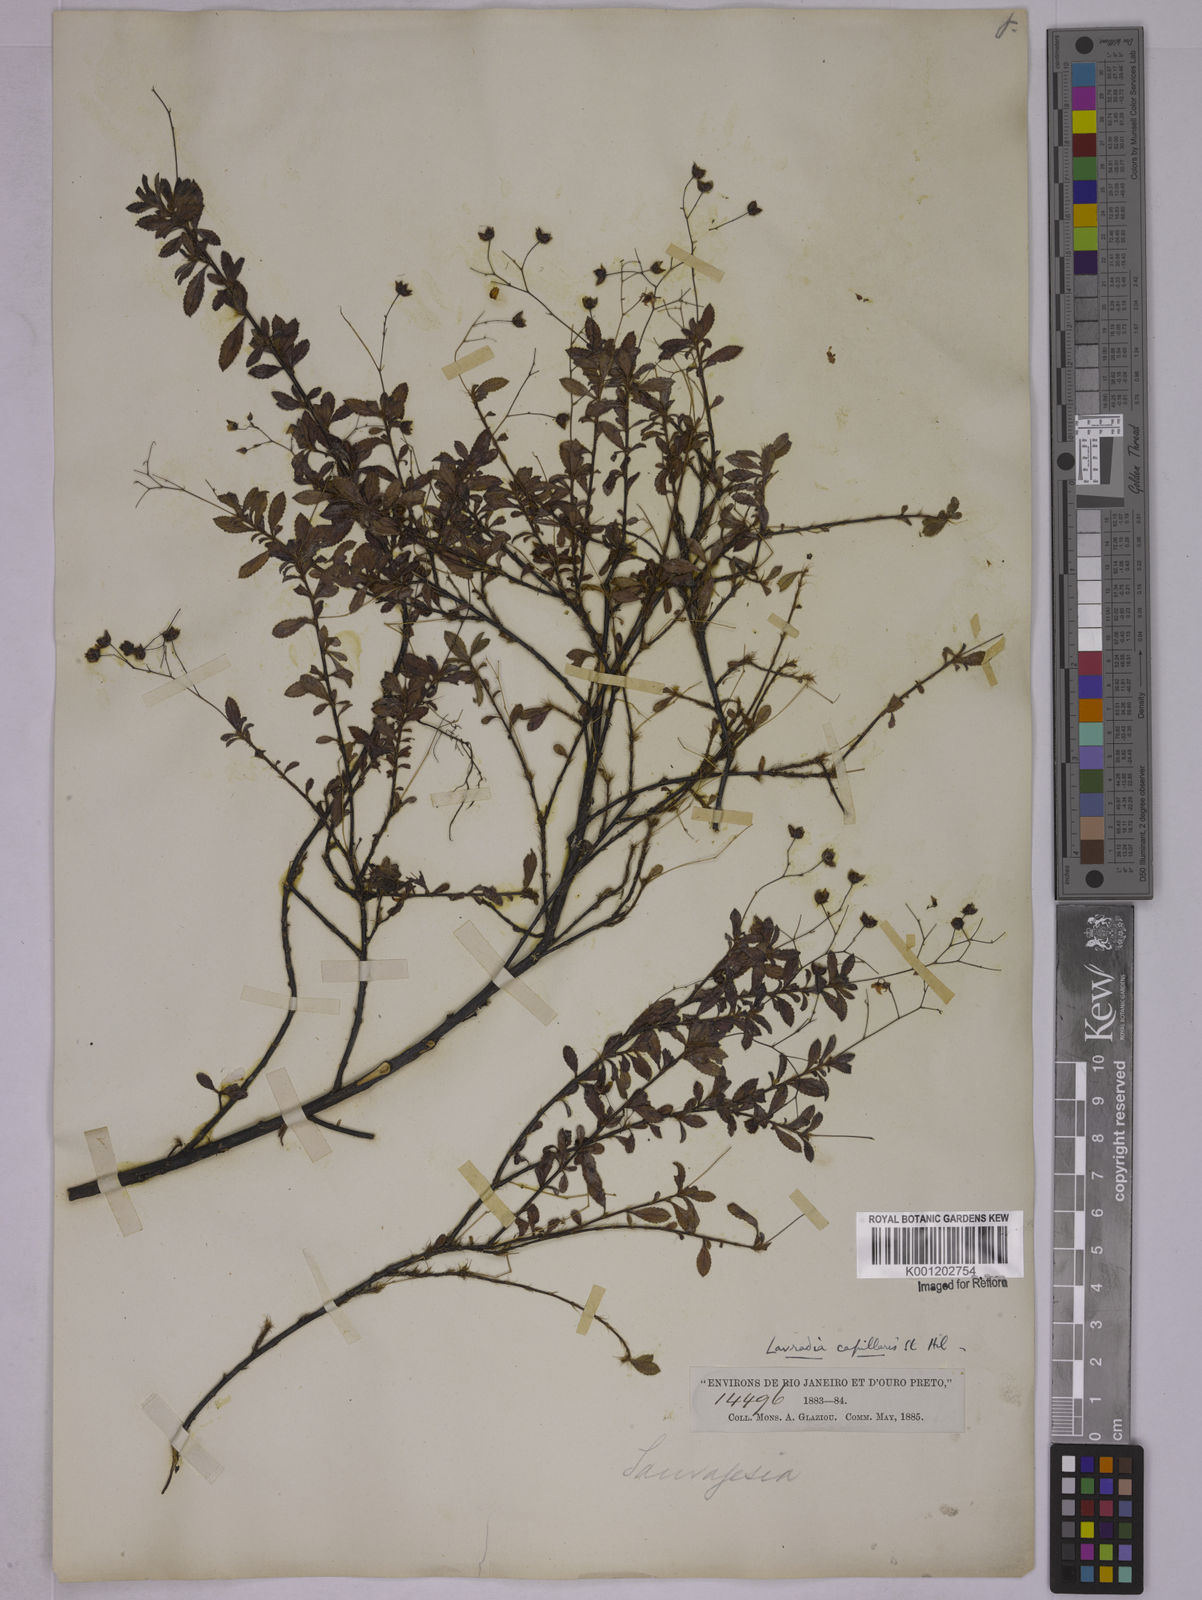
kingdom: Plantae
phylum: Tracheophyta
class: Magnoliopsida
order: Malpighiales
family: Ochnaceae
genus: Sauvagesia
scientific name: Sauvagesia capillaris
